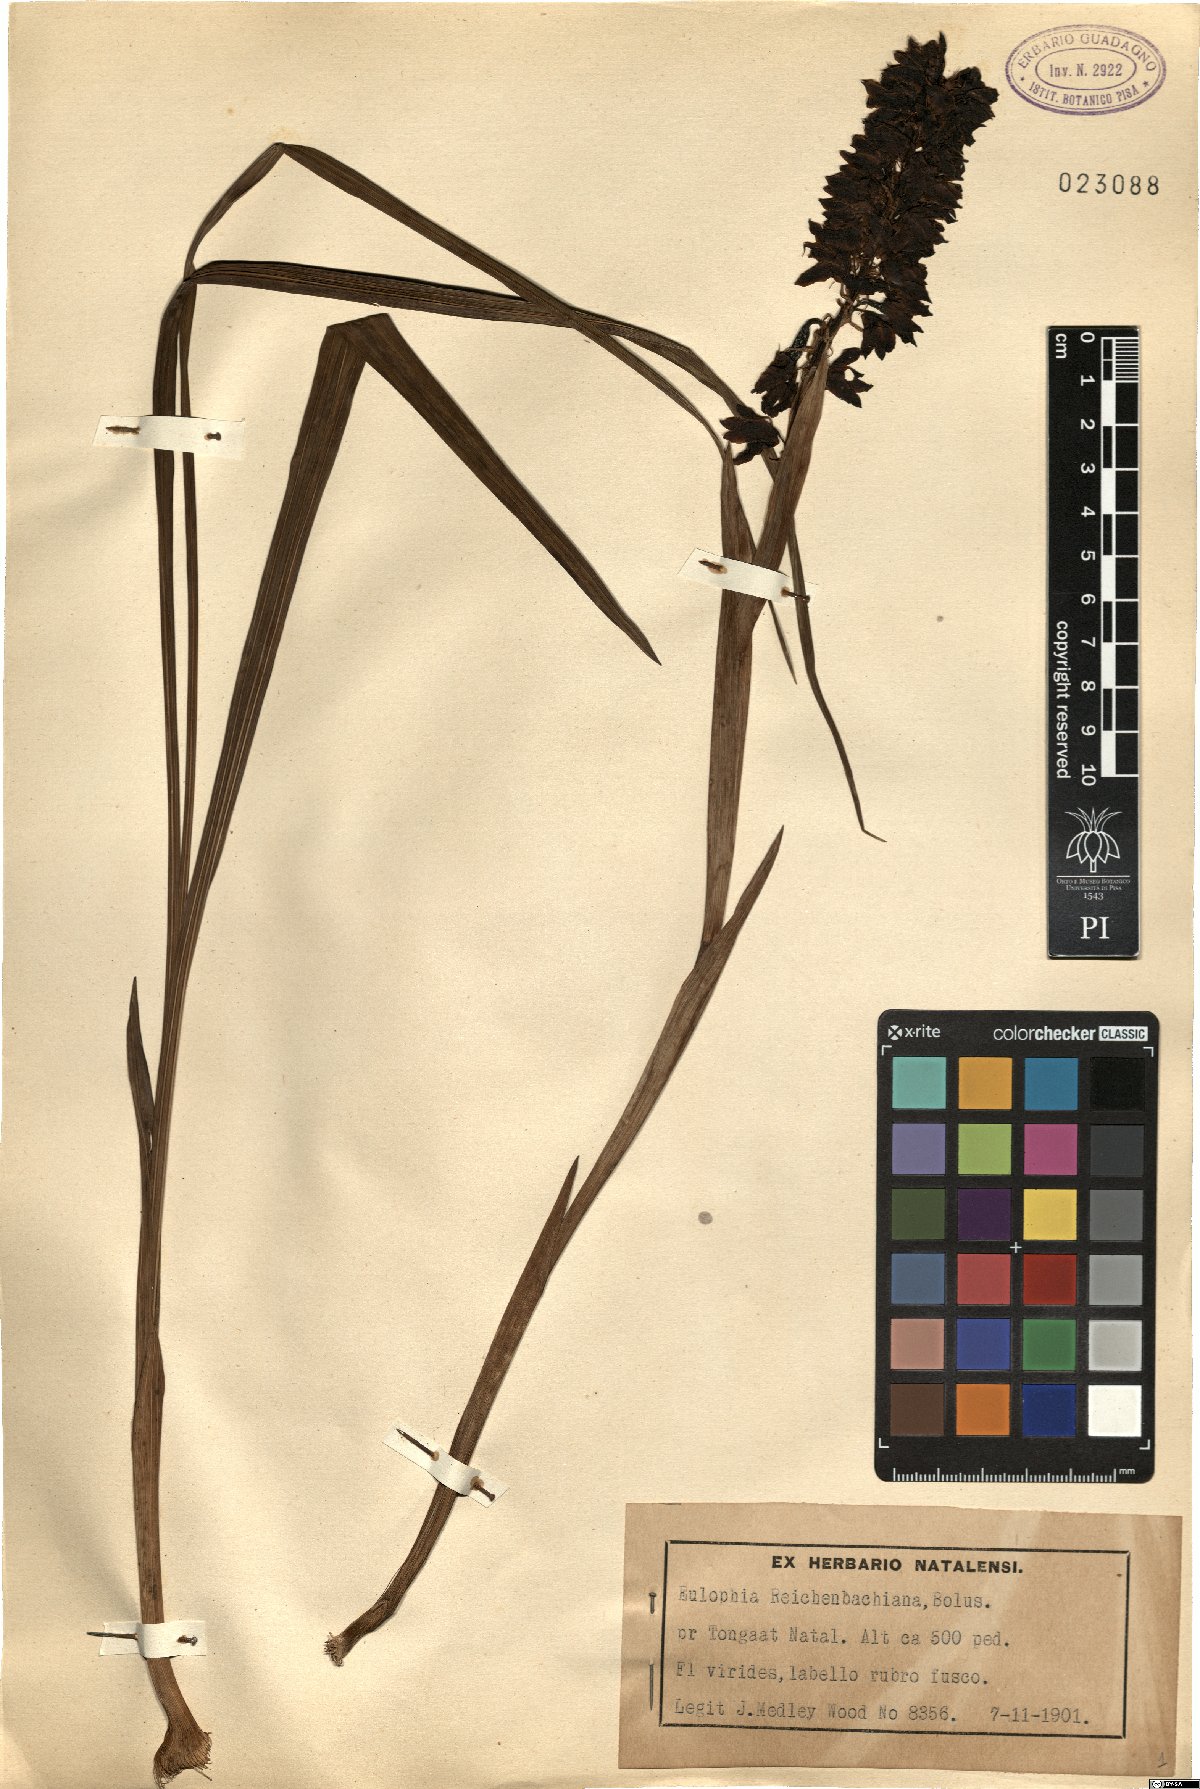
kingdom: Plantae
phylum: Tracheophyta
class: Liliopsida
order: Asparagales
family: Orchidaceae
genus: Eulophia
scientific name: Eulophia foliosa
